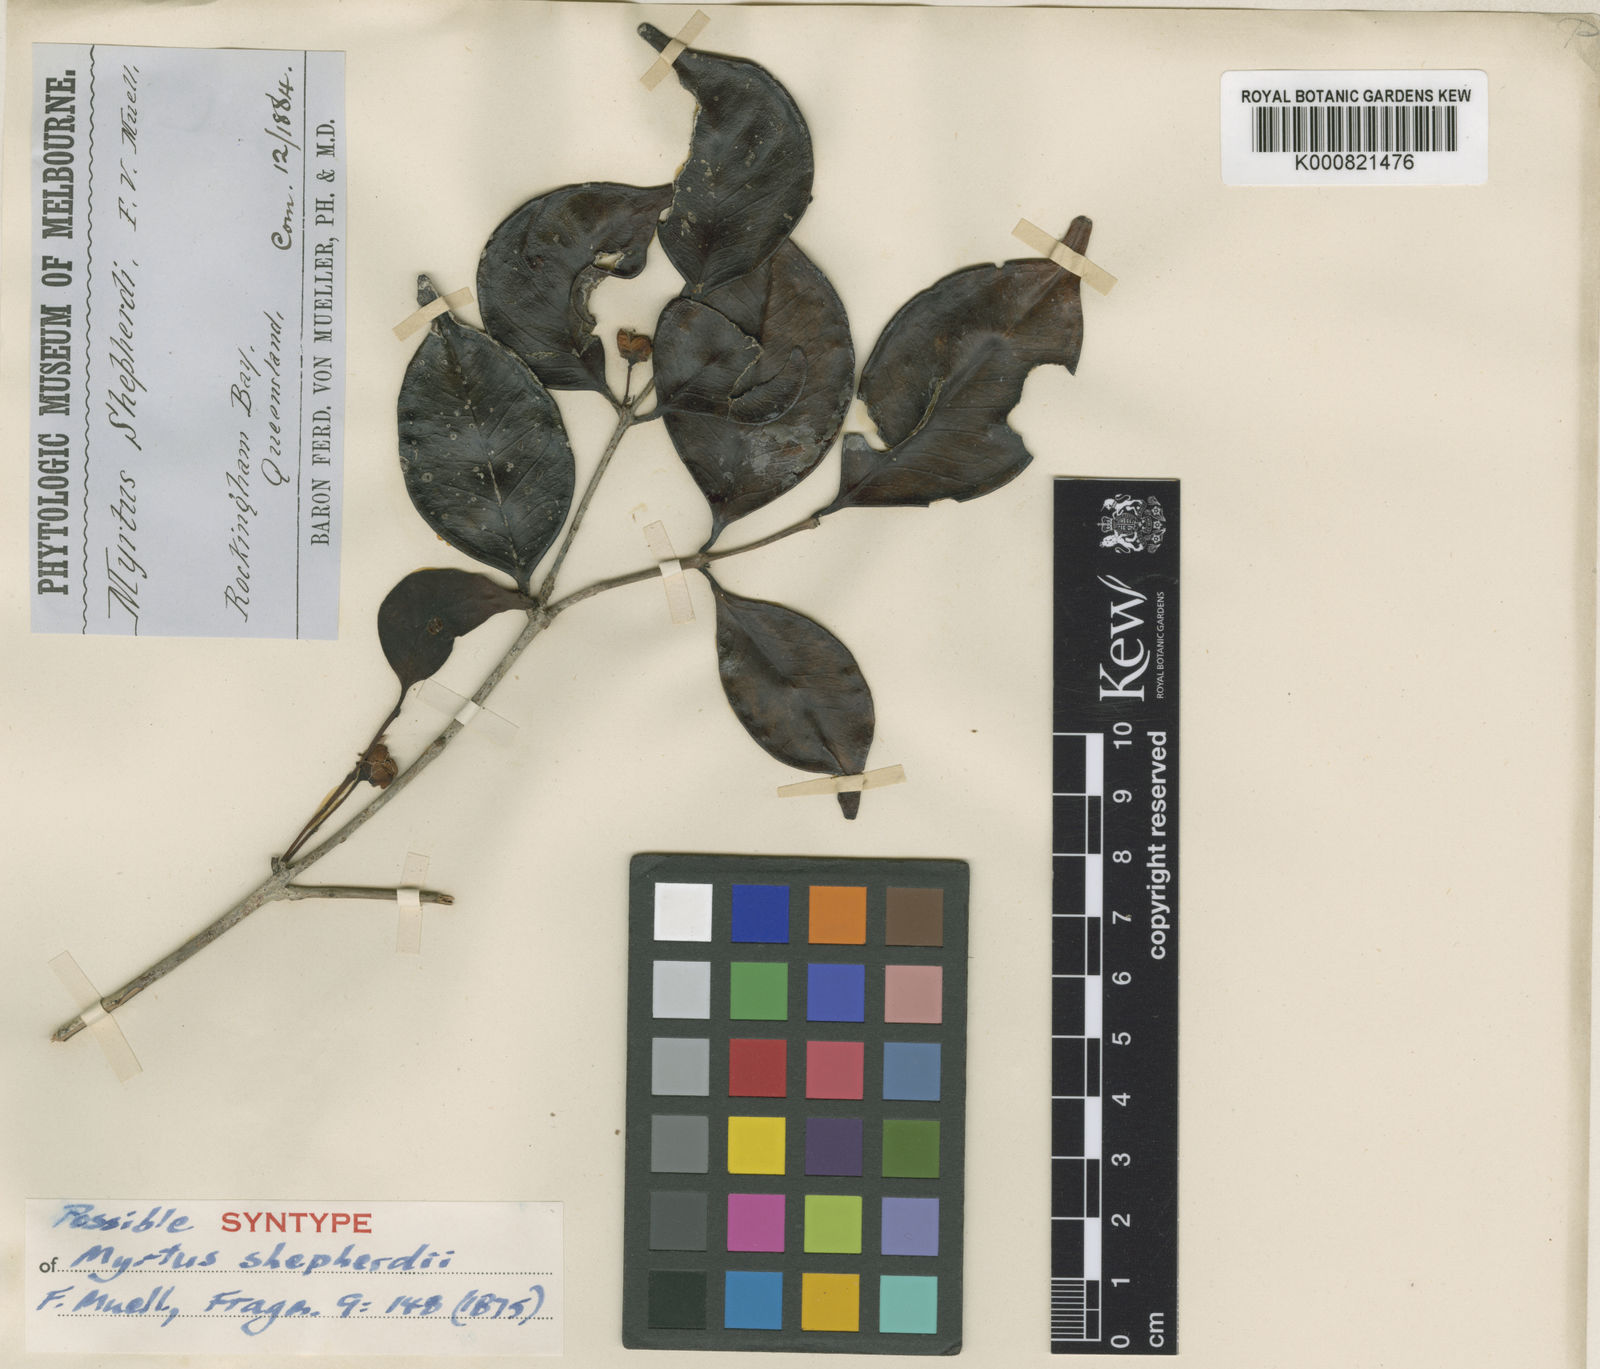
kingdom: Plantae
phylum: Tracheophyta
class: Magnoliopsida
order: Myrtales
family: Myrtaceae
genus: Gossia
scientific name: Gossia shepherdii
